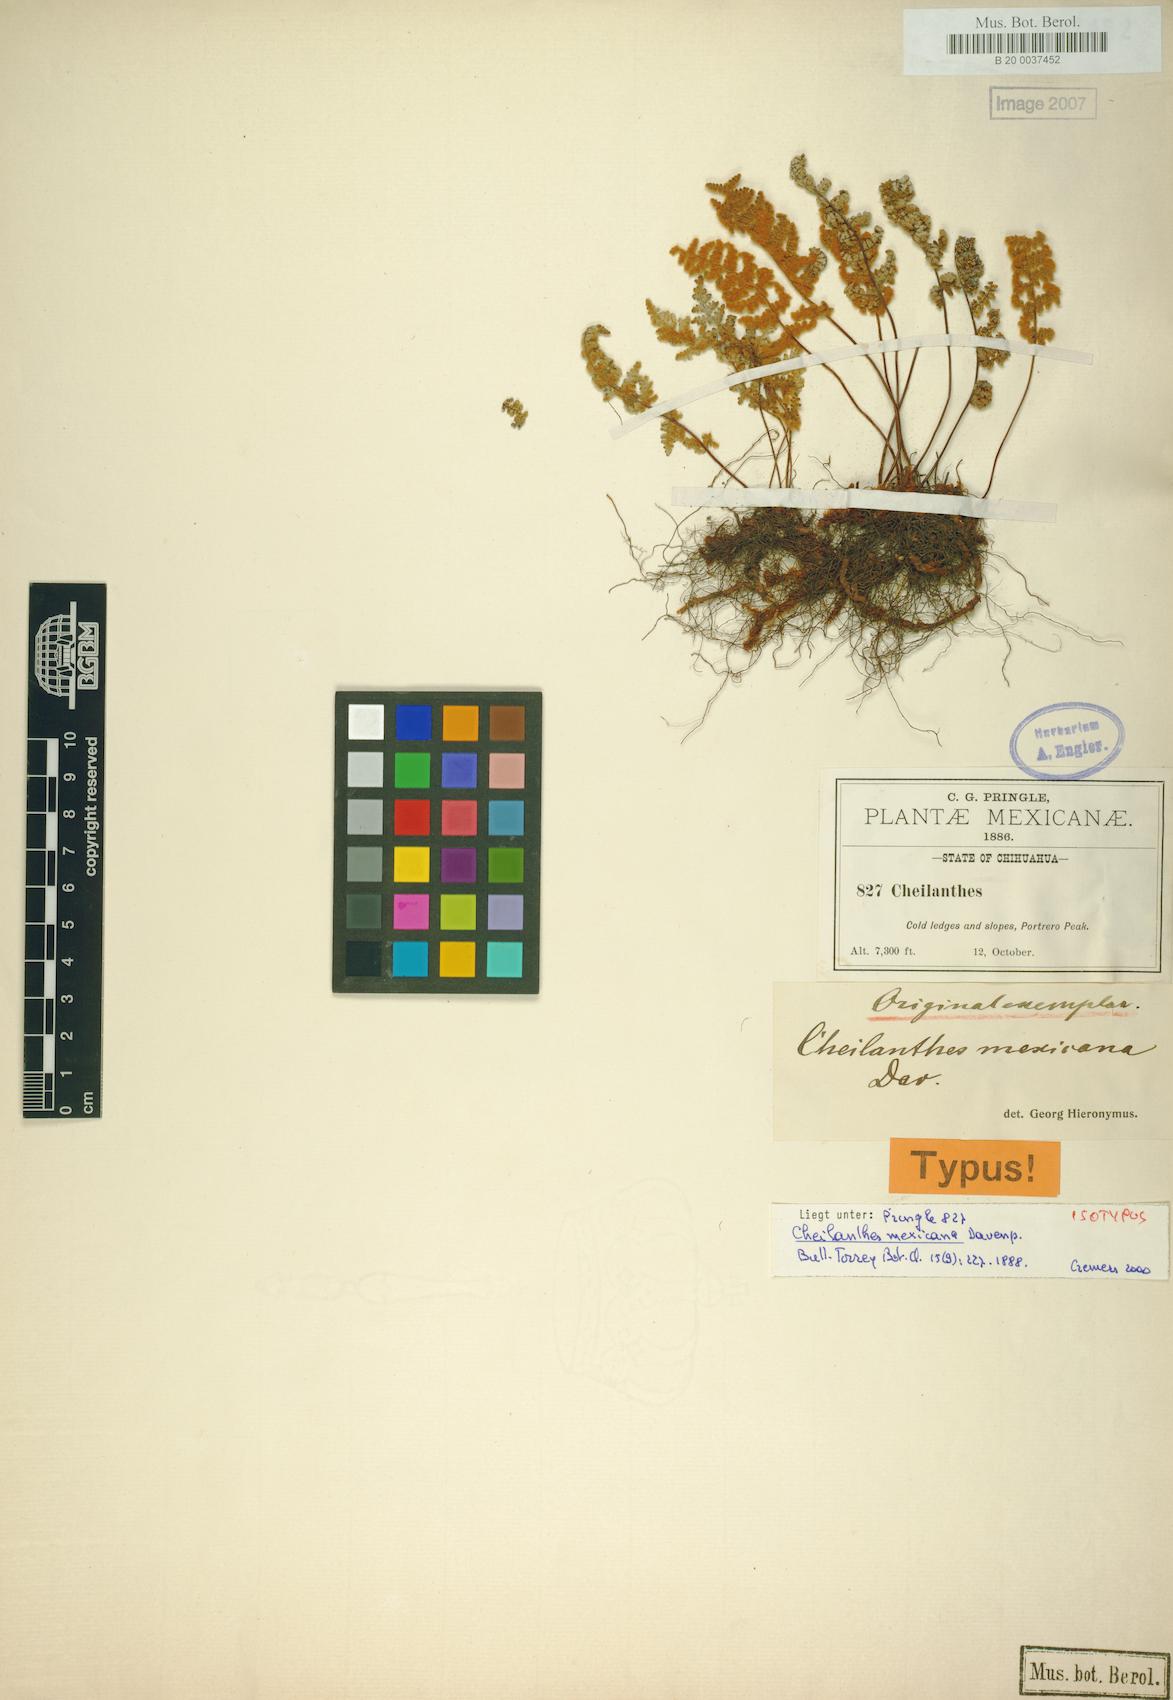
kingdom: Plantae
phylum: Tracheophyta
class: Polypodiopsida
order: Polypodiales
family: Pteridaceae
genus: Myriopteris
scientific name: Myriopteris mexicana
